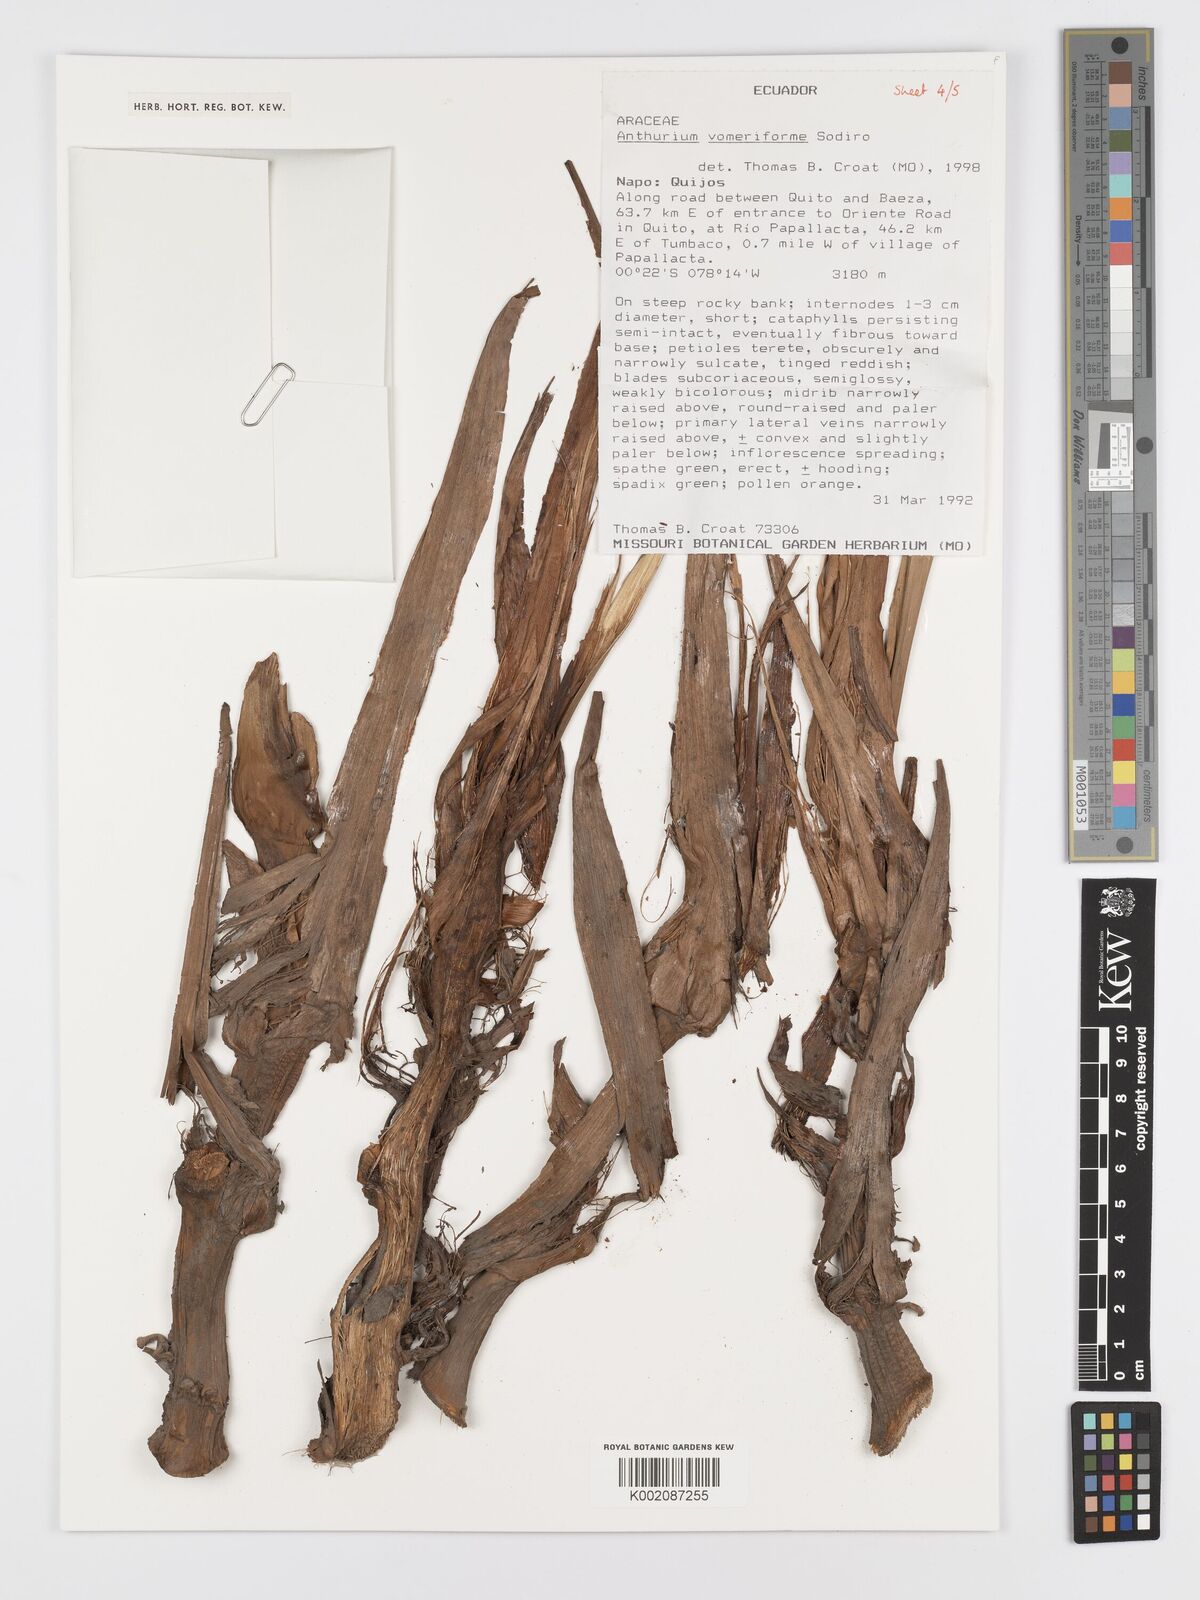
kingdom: Plantae
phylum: Tracheophyta
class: Liliopsida
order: Alismatales
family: Araceae
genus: Anthurium
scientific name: Anthurium vomeriforme
